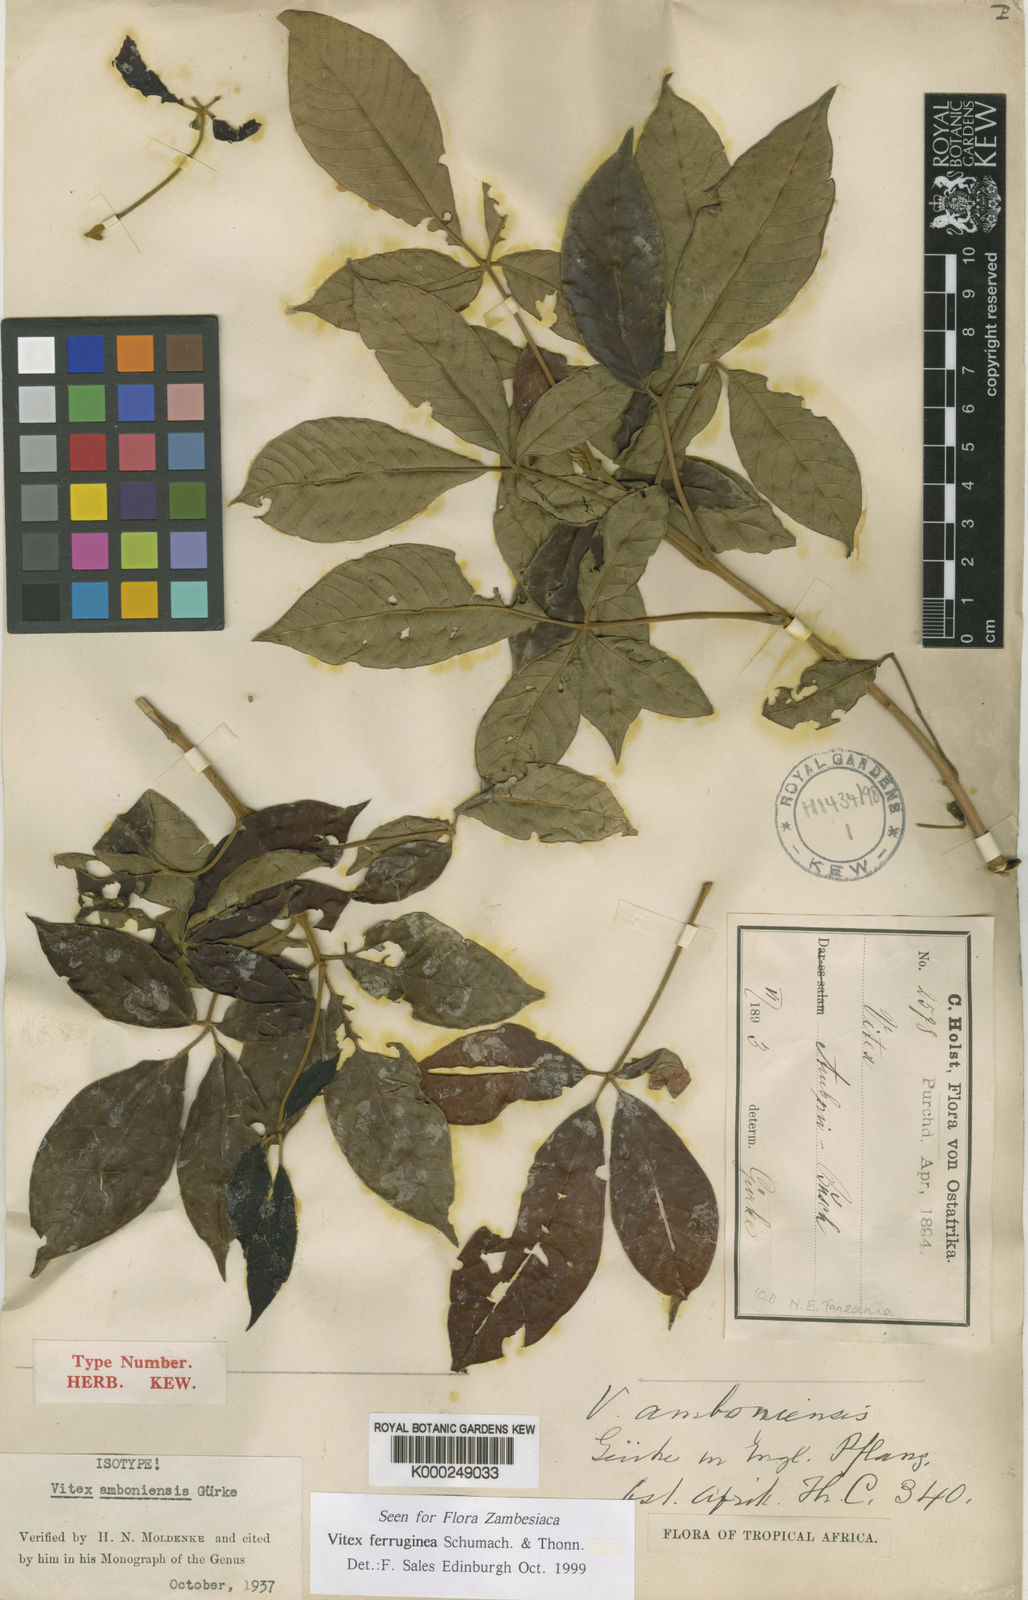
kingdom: Plantae
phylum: Tracheophyta
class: Magnoliopsida
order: Lamiales
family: Lamiaceae
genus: Vitex
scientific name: Vitex
